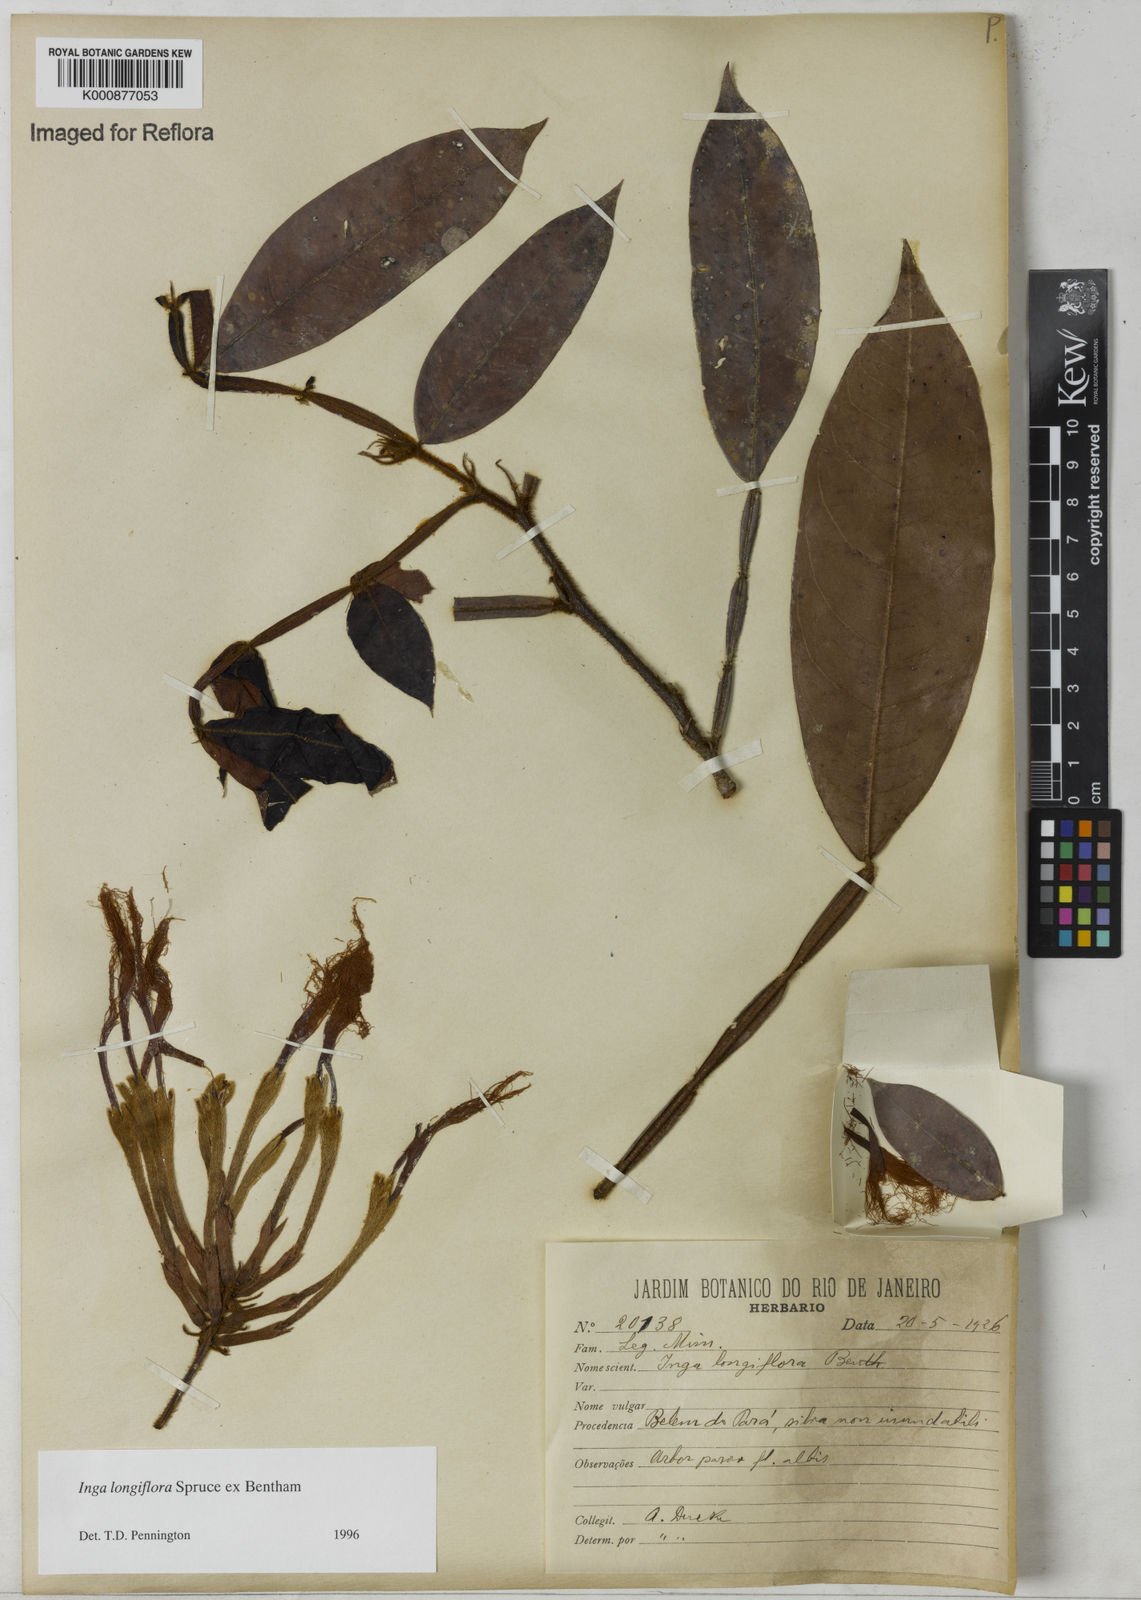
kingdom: Plantae
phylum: Tracheophyta
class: Magnoliopsida
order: Fabales
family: Fabaceae
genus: Inga
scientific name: Inga longiflora
